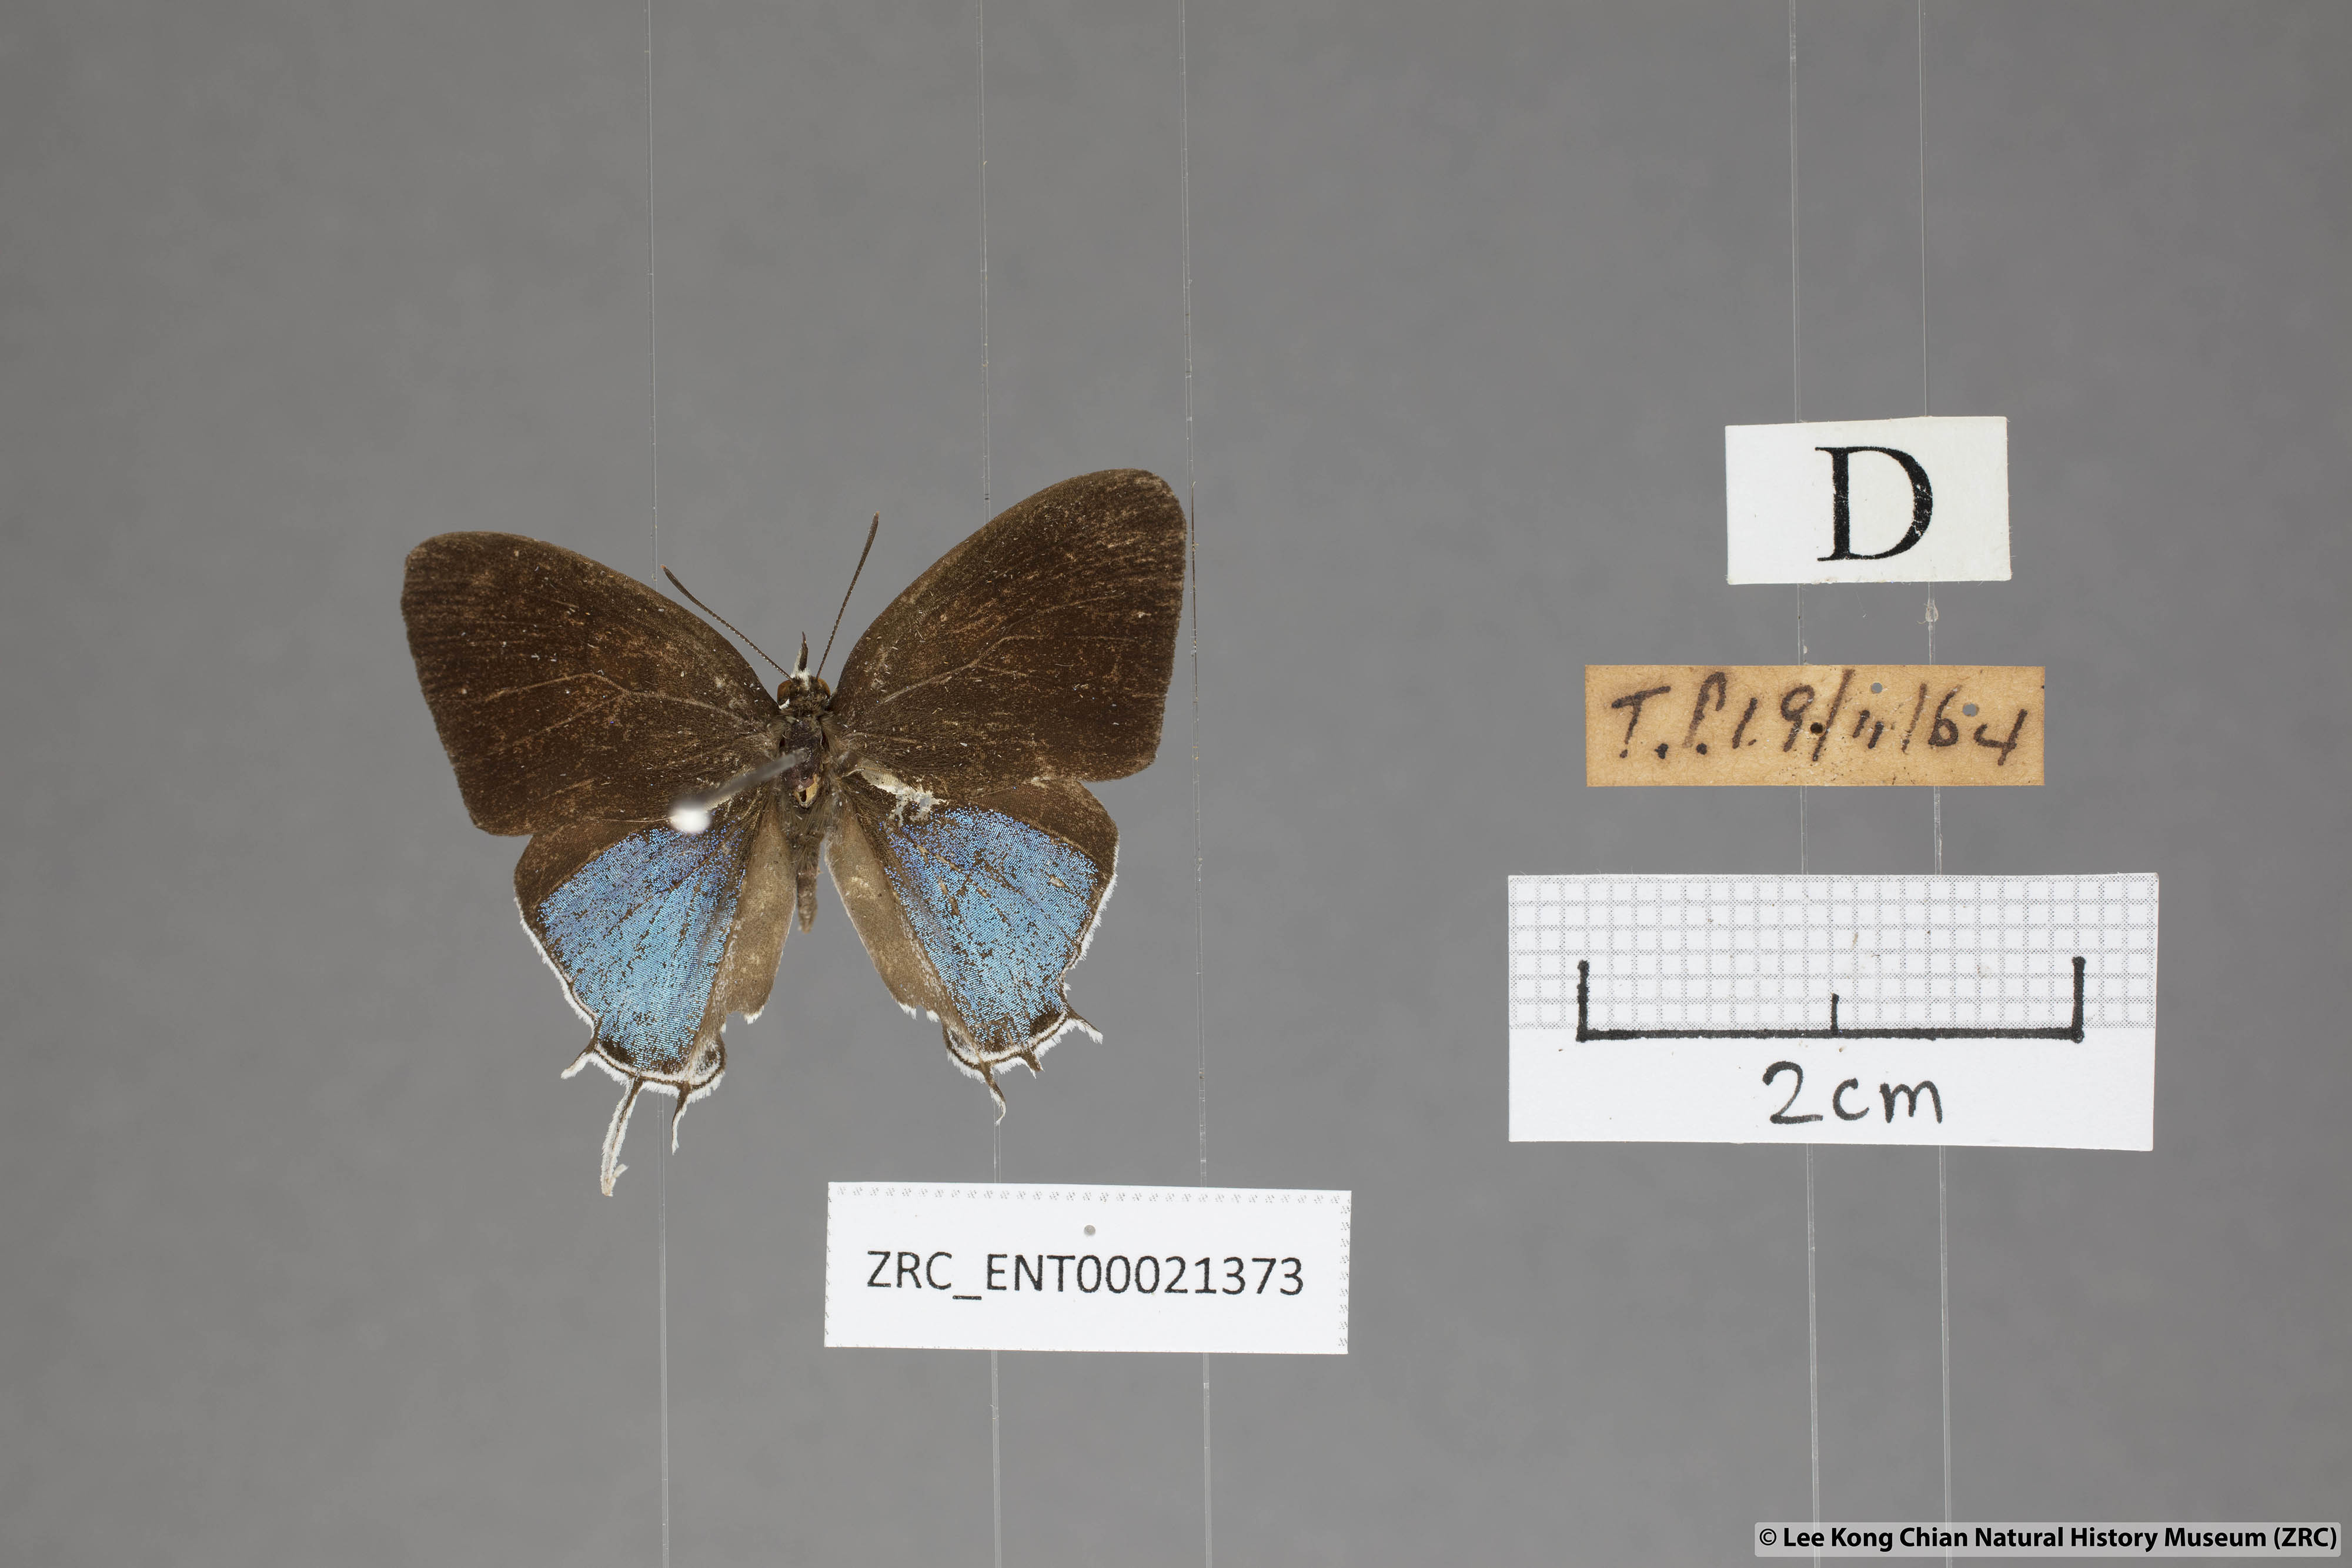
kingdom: Animalia
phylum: Arthropoda
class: Insecta
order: Lepidoptera
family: Lycaenidae
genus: Drupadia
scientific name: Drupadia ravindra
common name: Common posy
